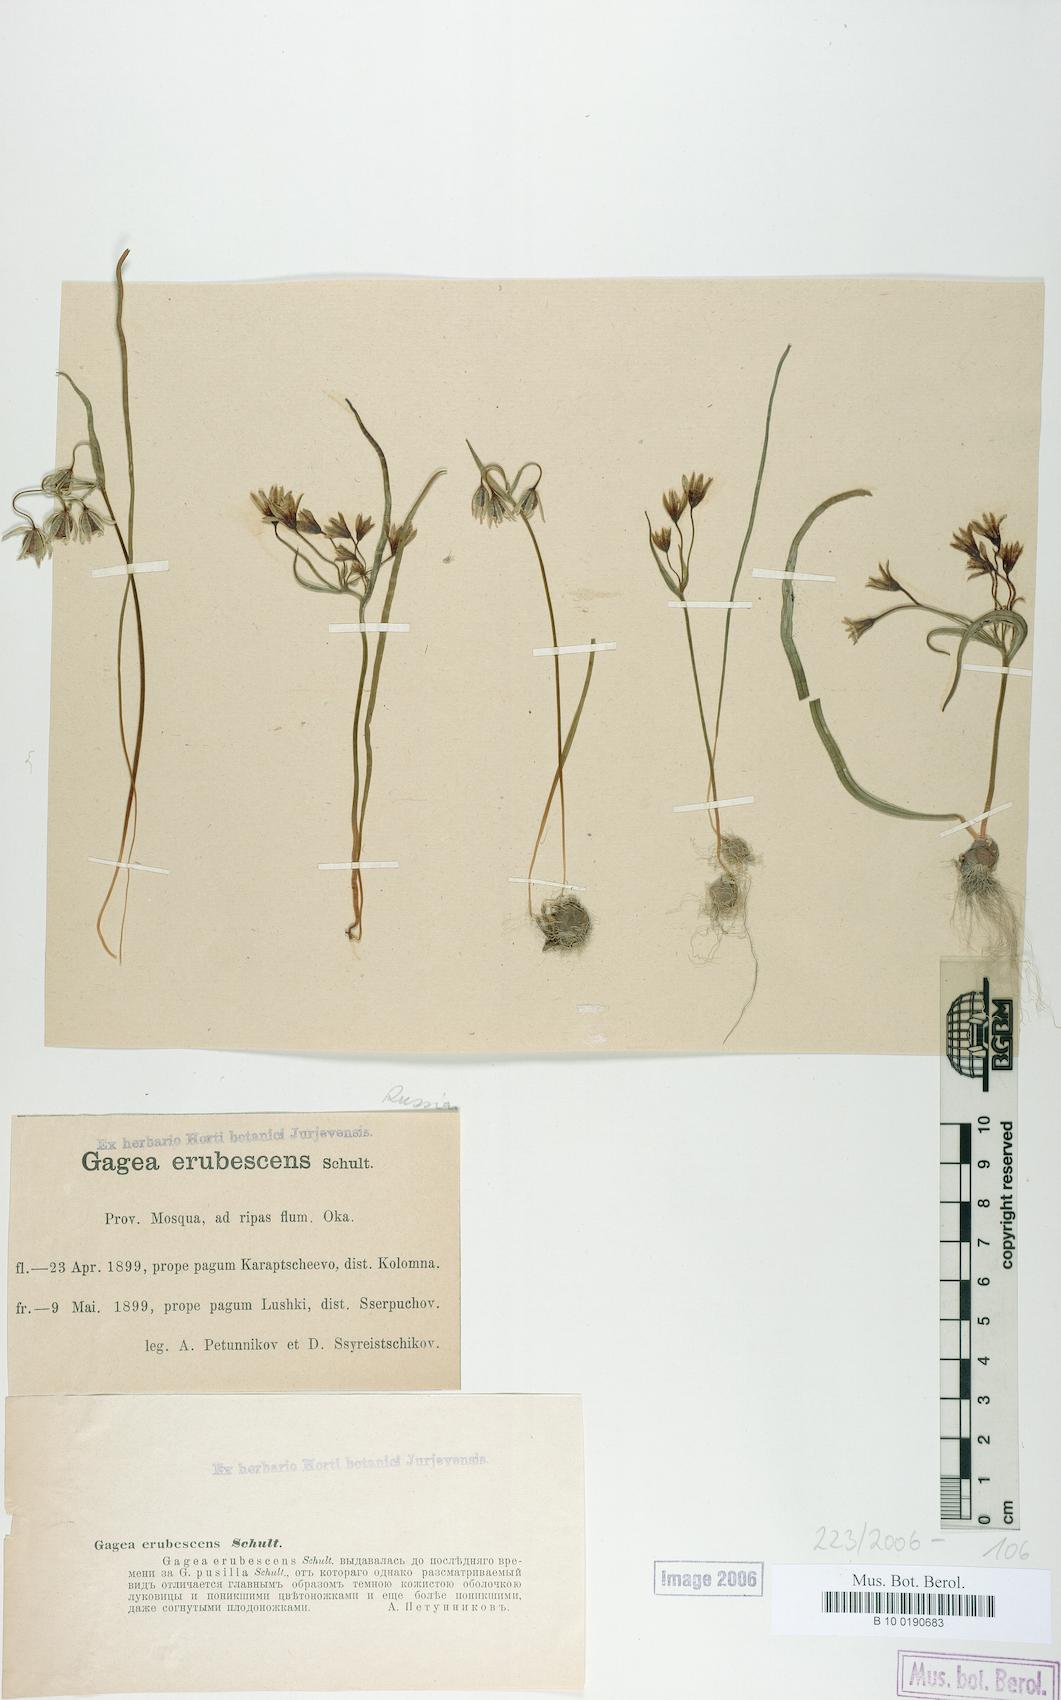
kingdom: Plantae
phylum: Tracheophyta
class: Liliopsida
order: Liliales
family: Liliaceae
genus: Gagea
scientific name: Gagea fragifera
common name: Lily
